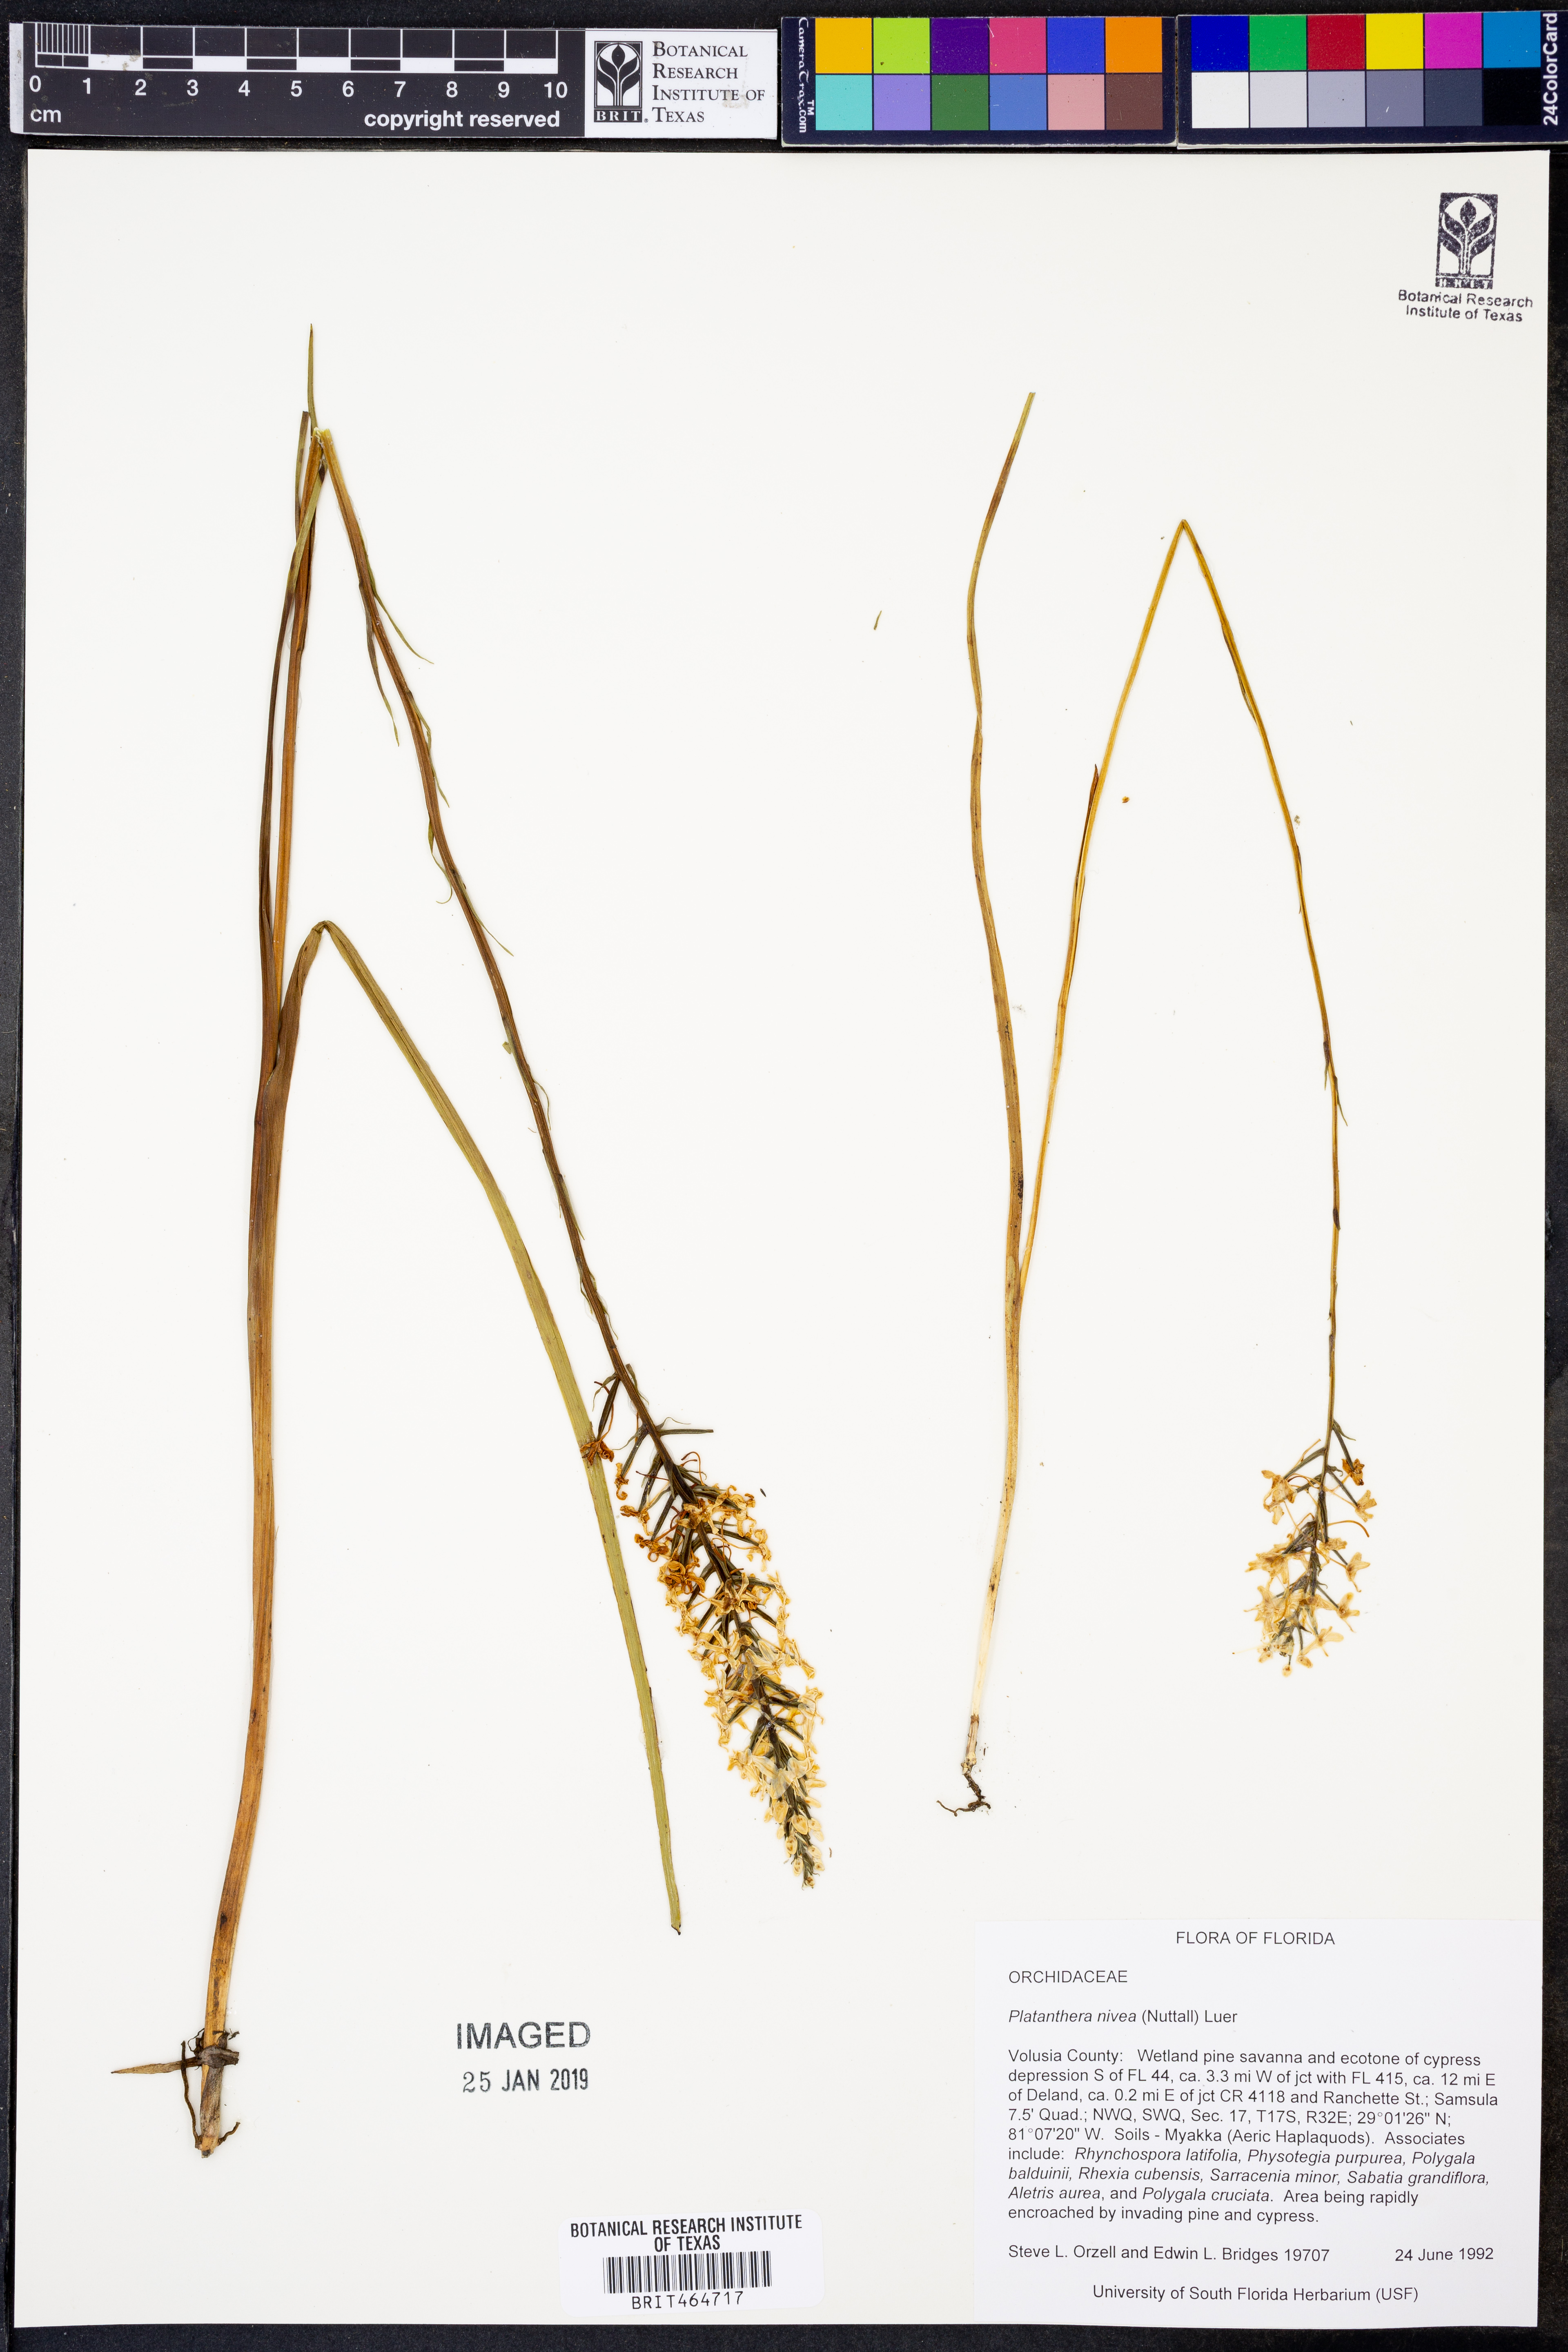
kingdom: Plantae
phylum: Tracheophyta
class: Liliopsida
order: Asparagales
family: Orchidaceae
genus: Platanthera
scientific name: Platanthera nivea
